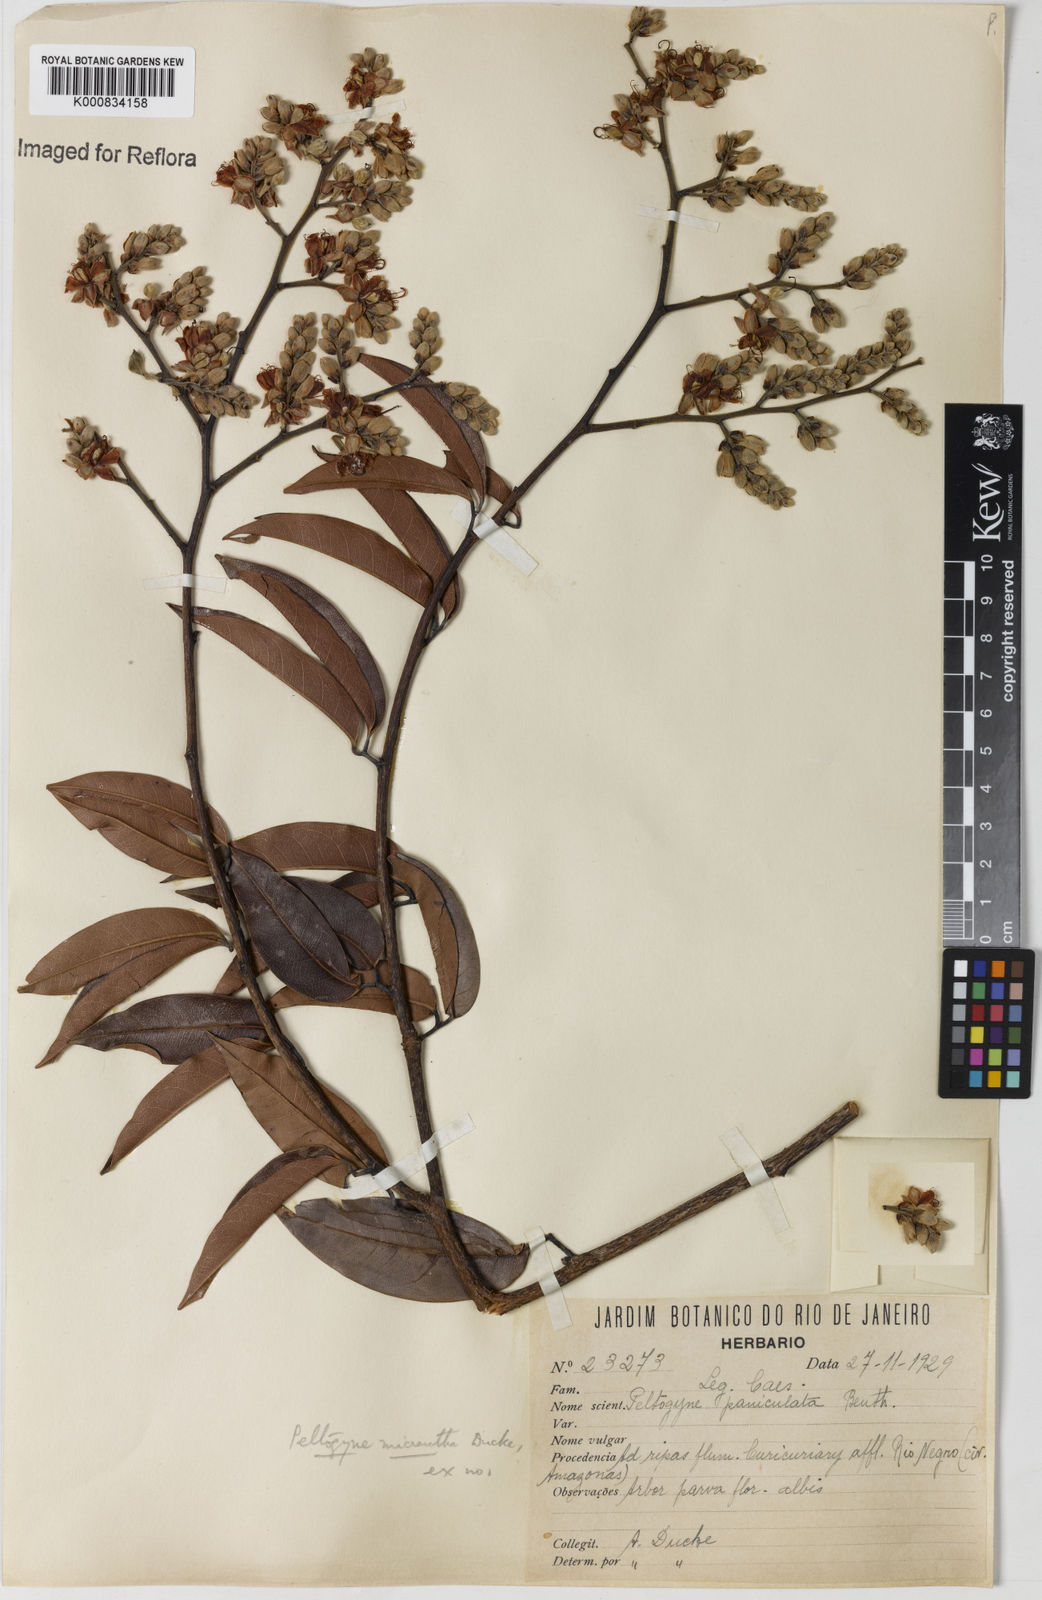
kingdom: Plantae
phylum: Tracheophyta
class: Magnoliopsida
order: Fabales
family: Fabaceae
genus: Peltogyne
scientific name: Peltogyne
